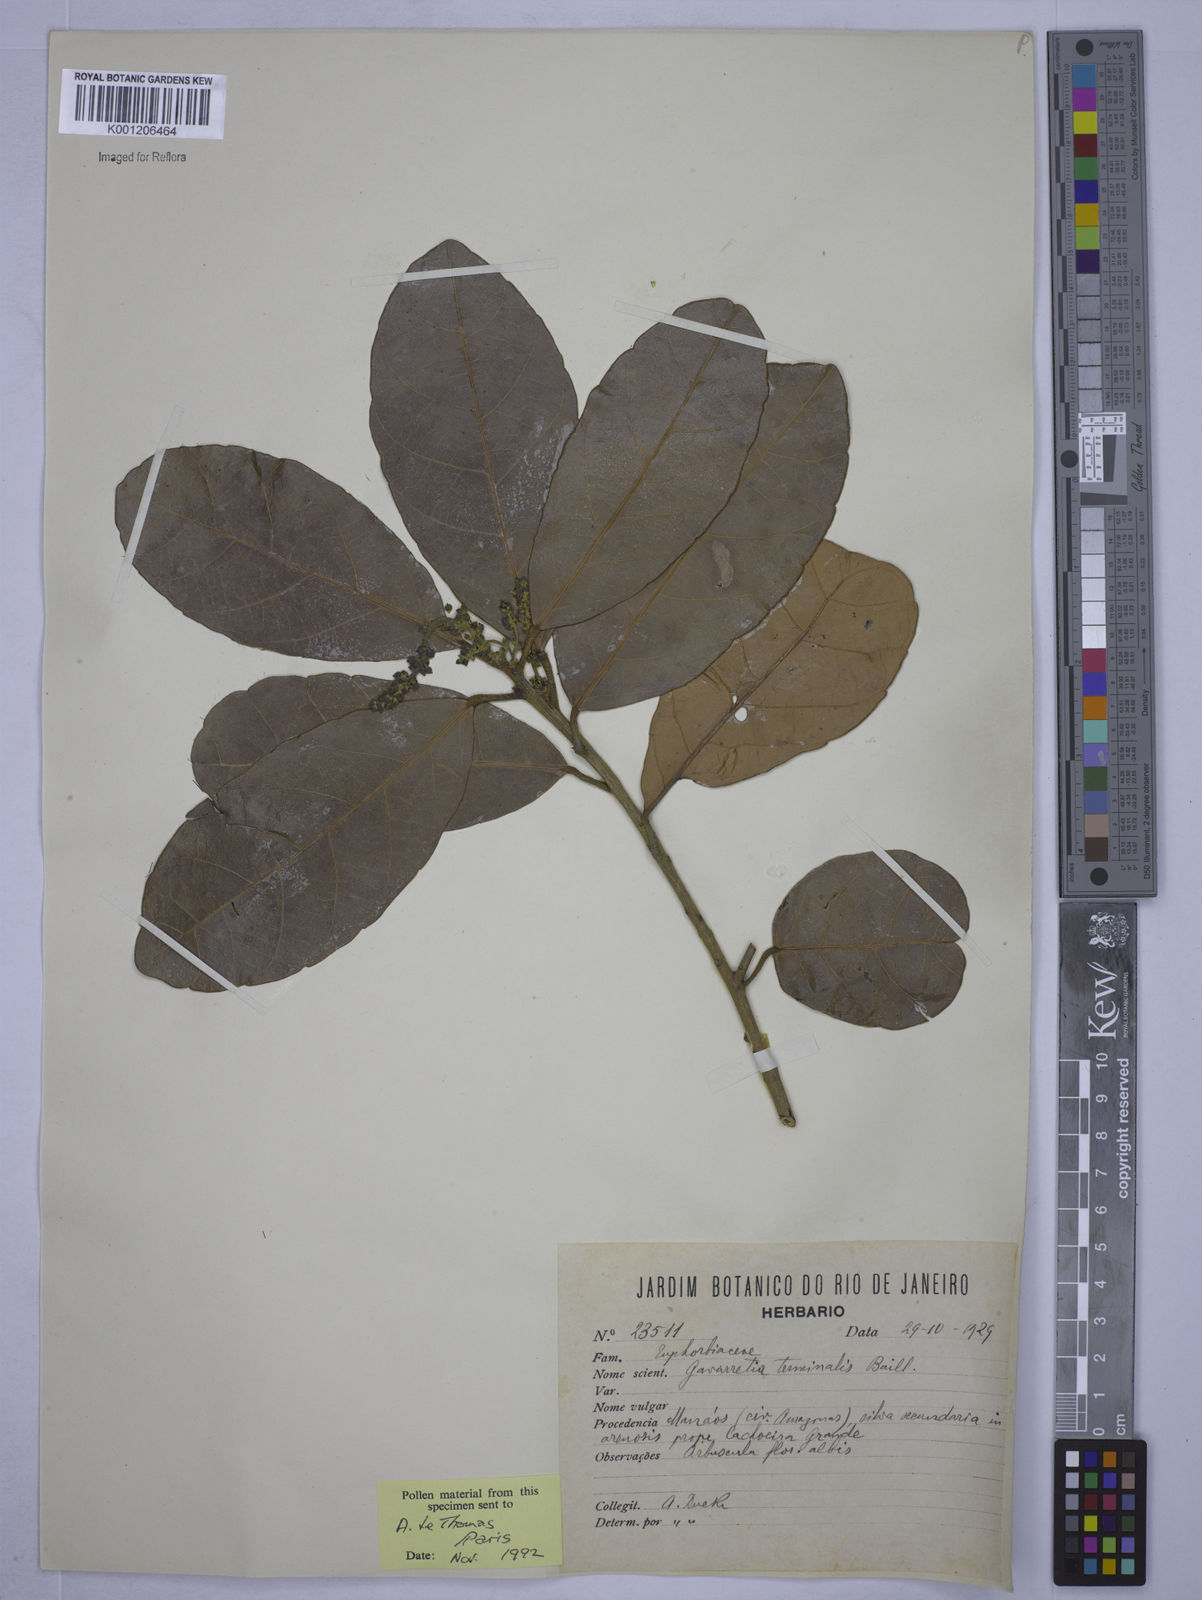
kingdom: Plantae
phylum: Tracheophyta
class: Magnoliopsida
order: Malpighiales
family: Euphorbiaceae
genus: Conceveiba
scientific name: Conceveiba
